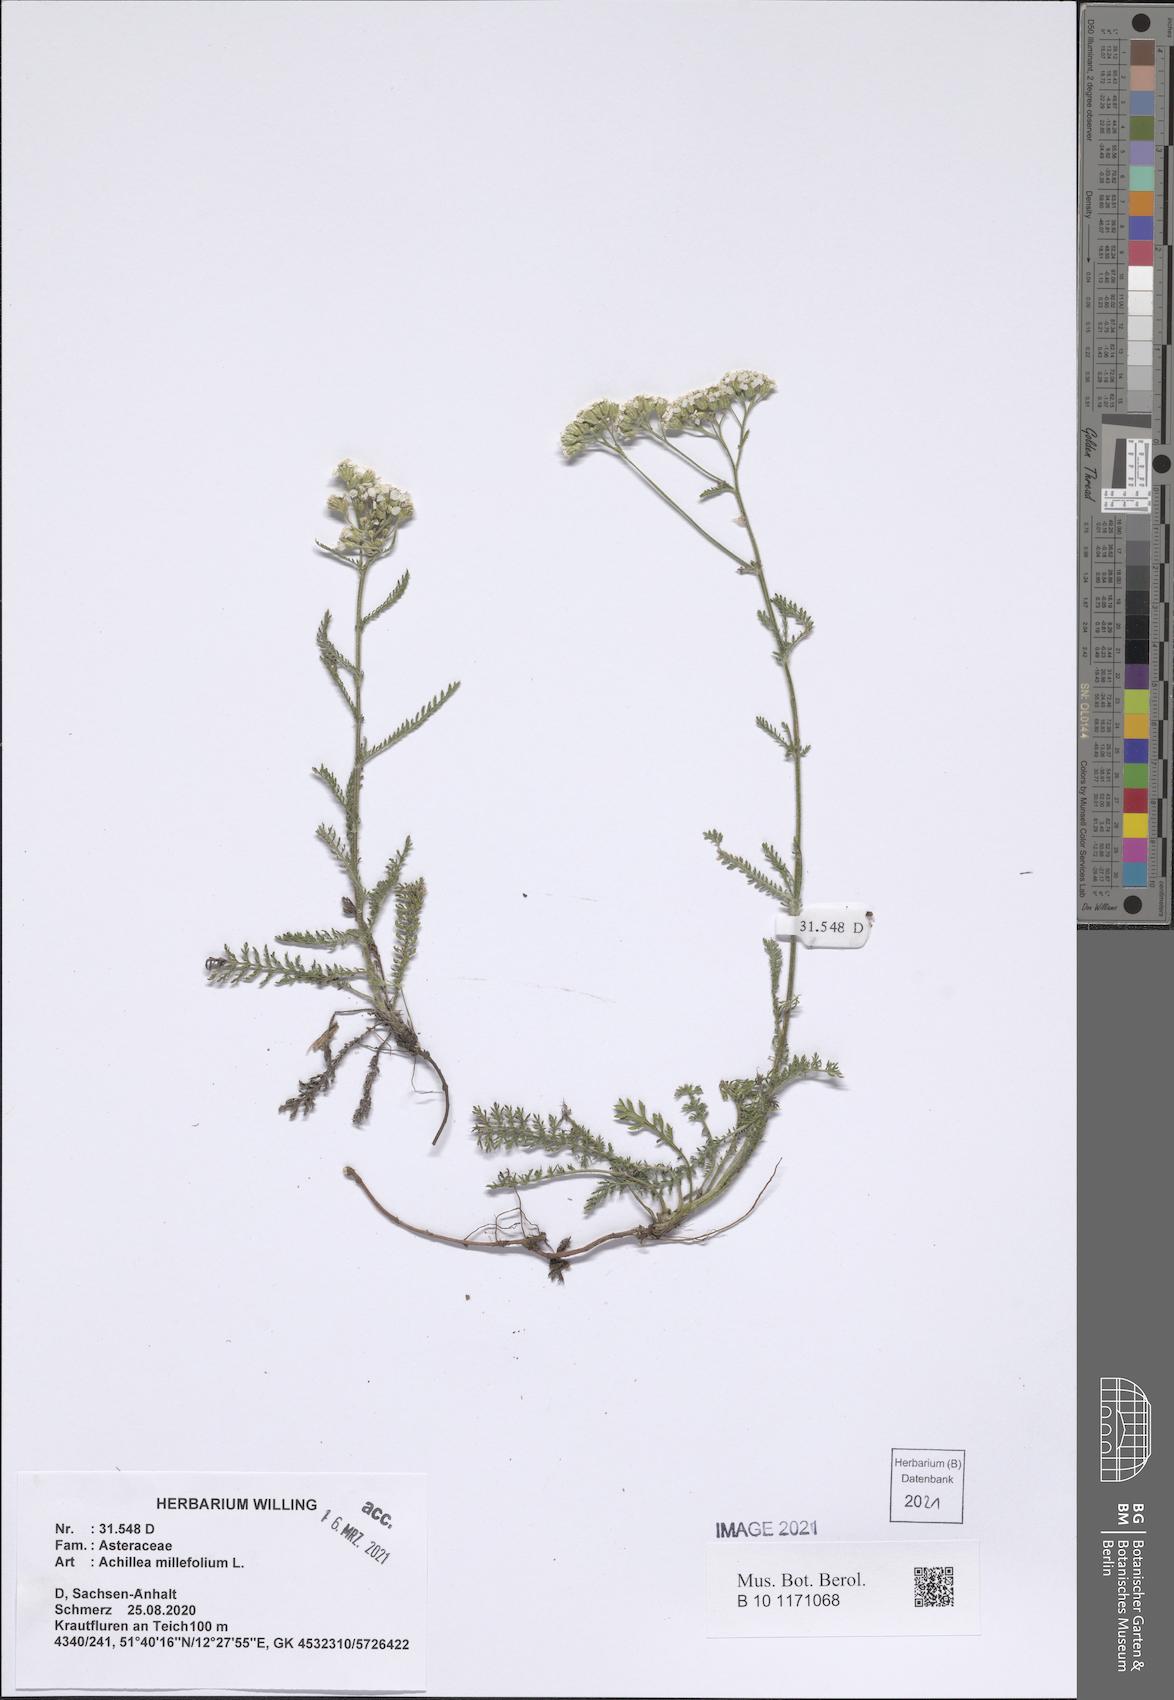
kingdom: Plantae
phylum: Tracheophyta
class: Magnoliopsida
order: Asterales
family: Asteraceae
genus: Achillea
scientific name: Achillea millefolium
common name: Yarrow
